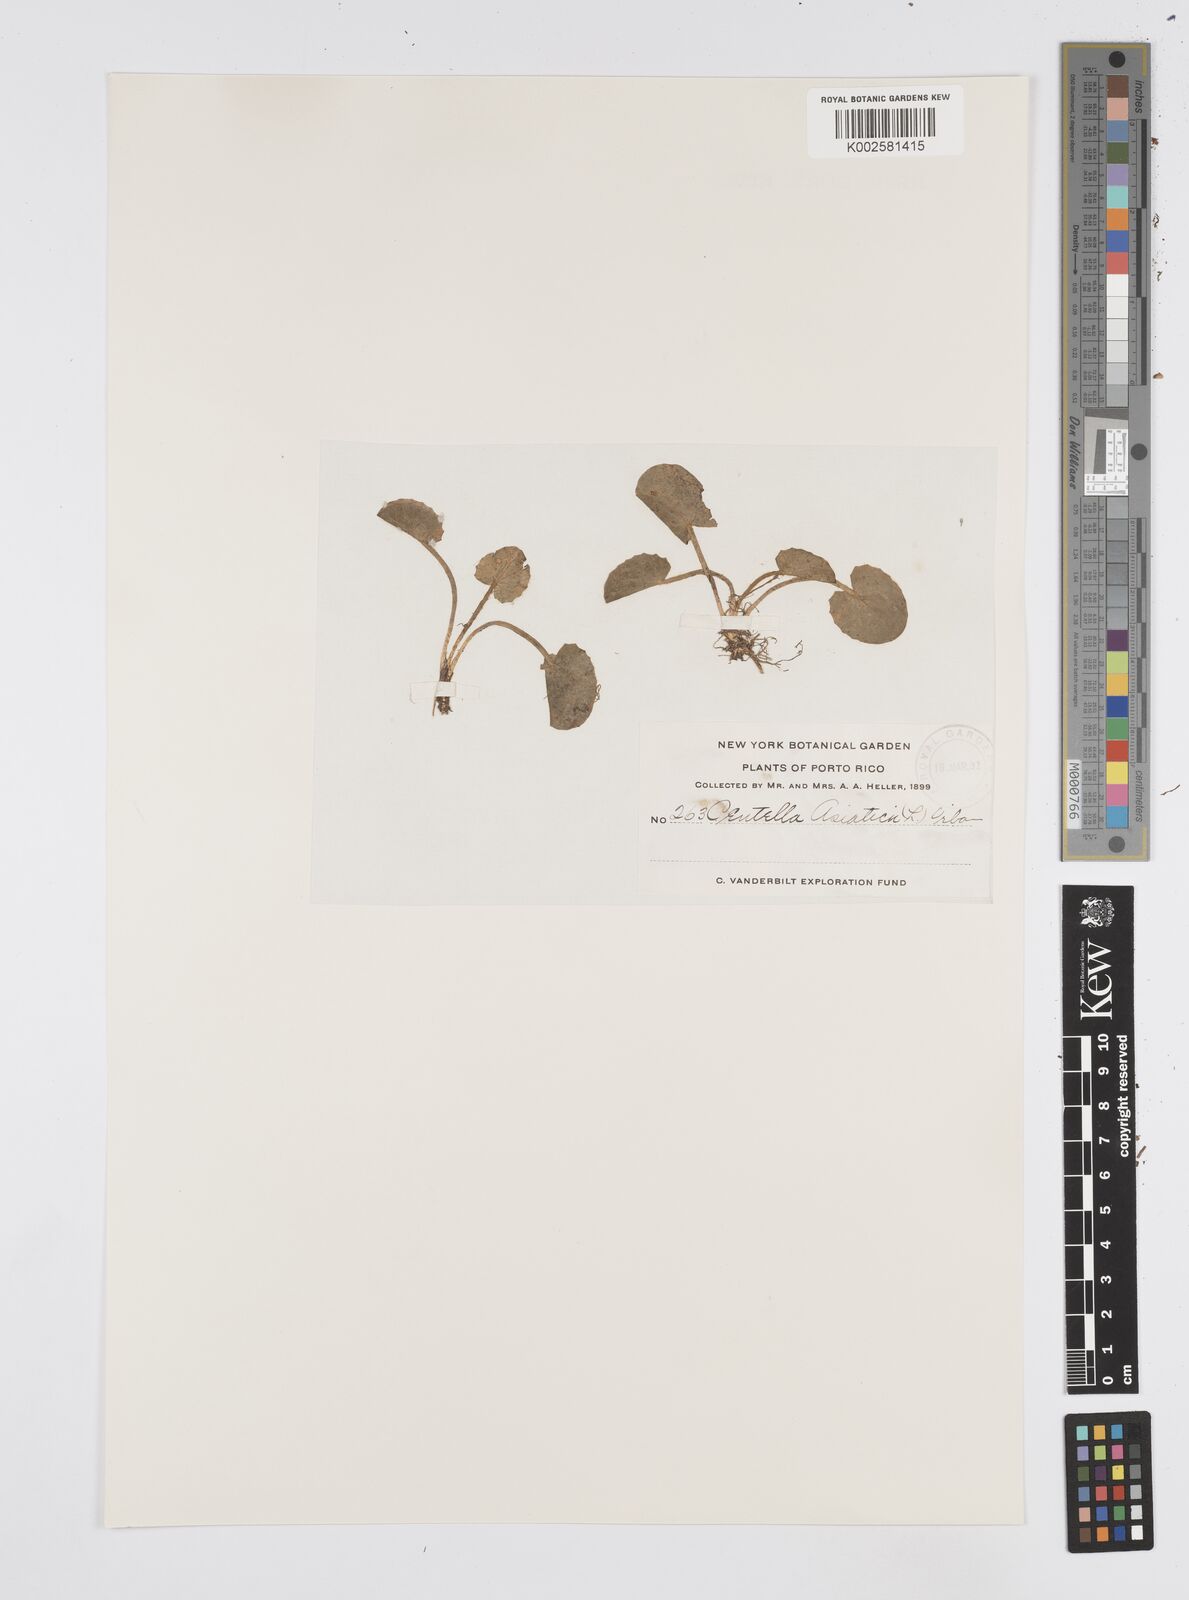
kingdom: Plantae
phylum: Tracheophyta
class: Magnoliopsida
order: Apiales
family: Apiaceae
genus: Centella
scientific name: Centella asiatica
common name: Spadeleaf
